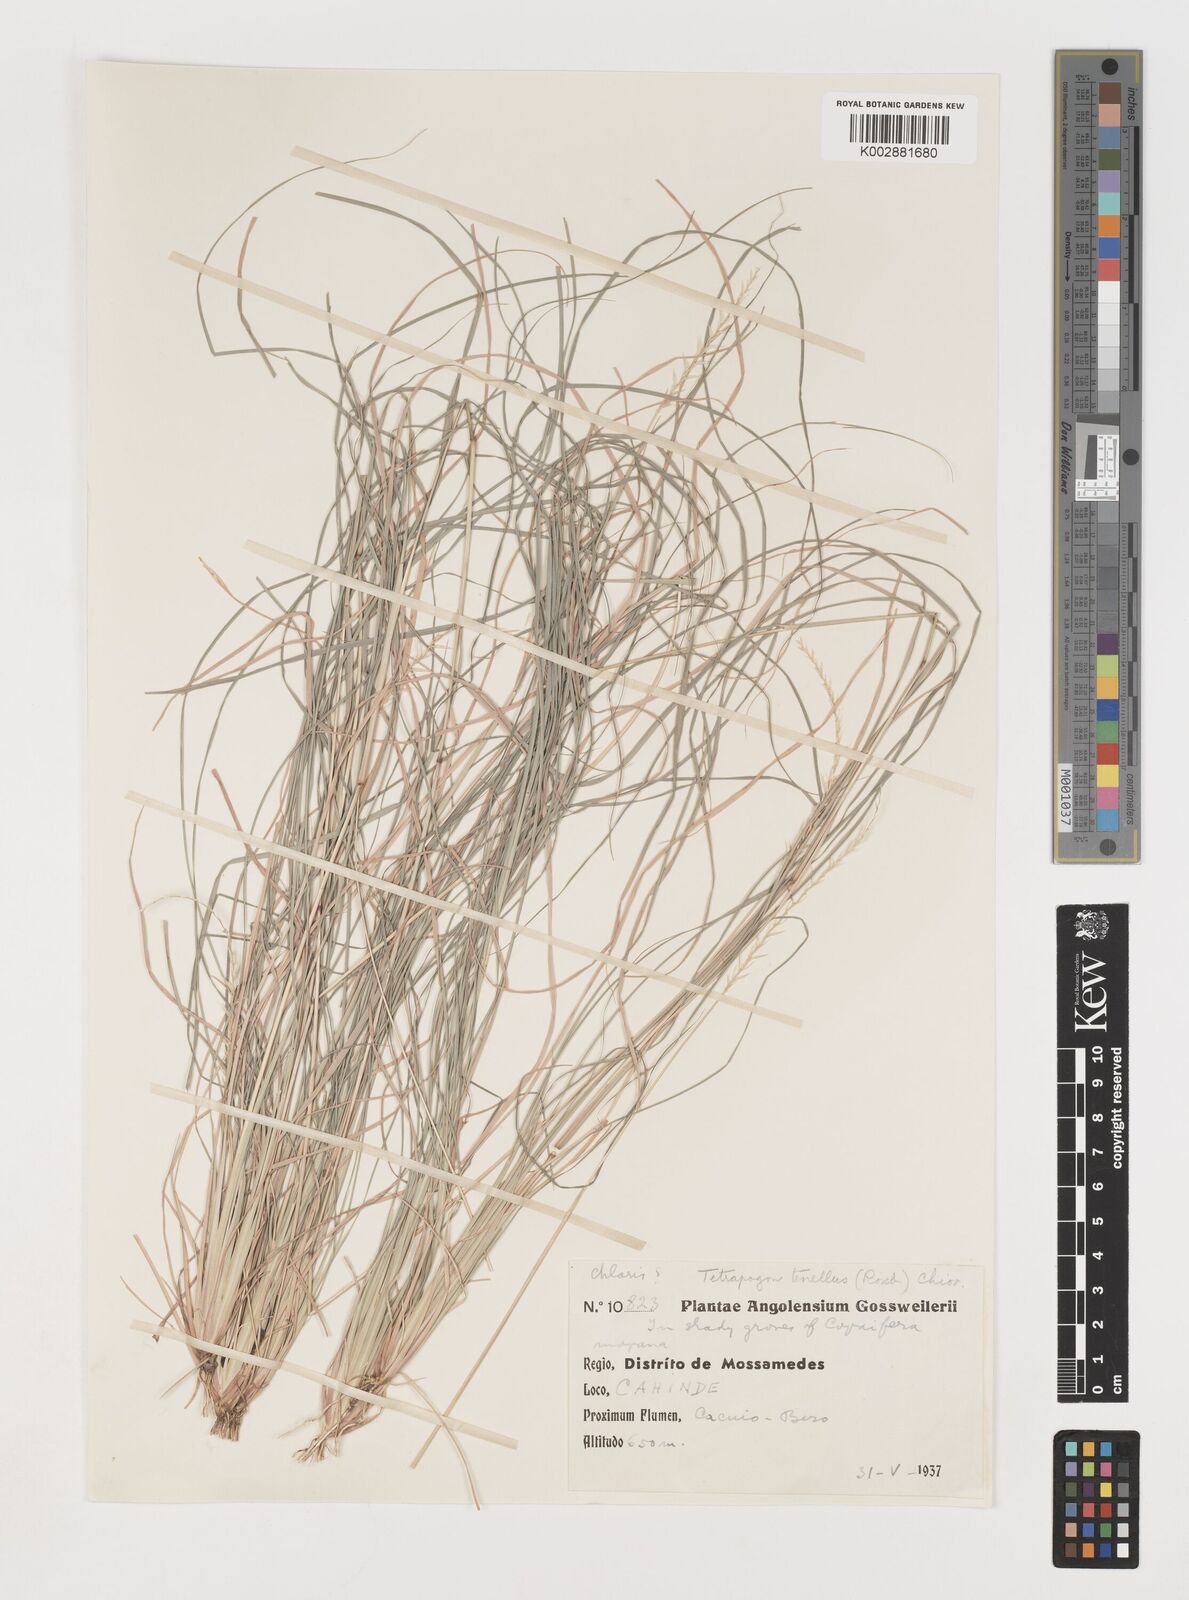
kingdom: Plantae
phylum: Tracheophyta
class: Liliopsida
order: Poales
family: Poaceae
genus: Tetrapogon
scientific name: Tetrapogon tenellus
